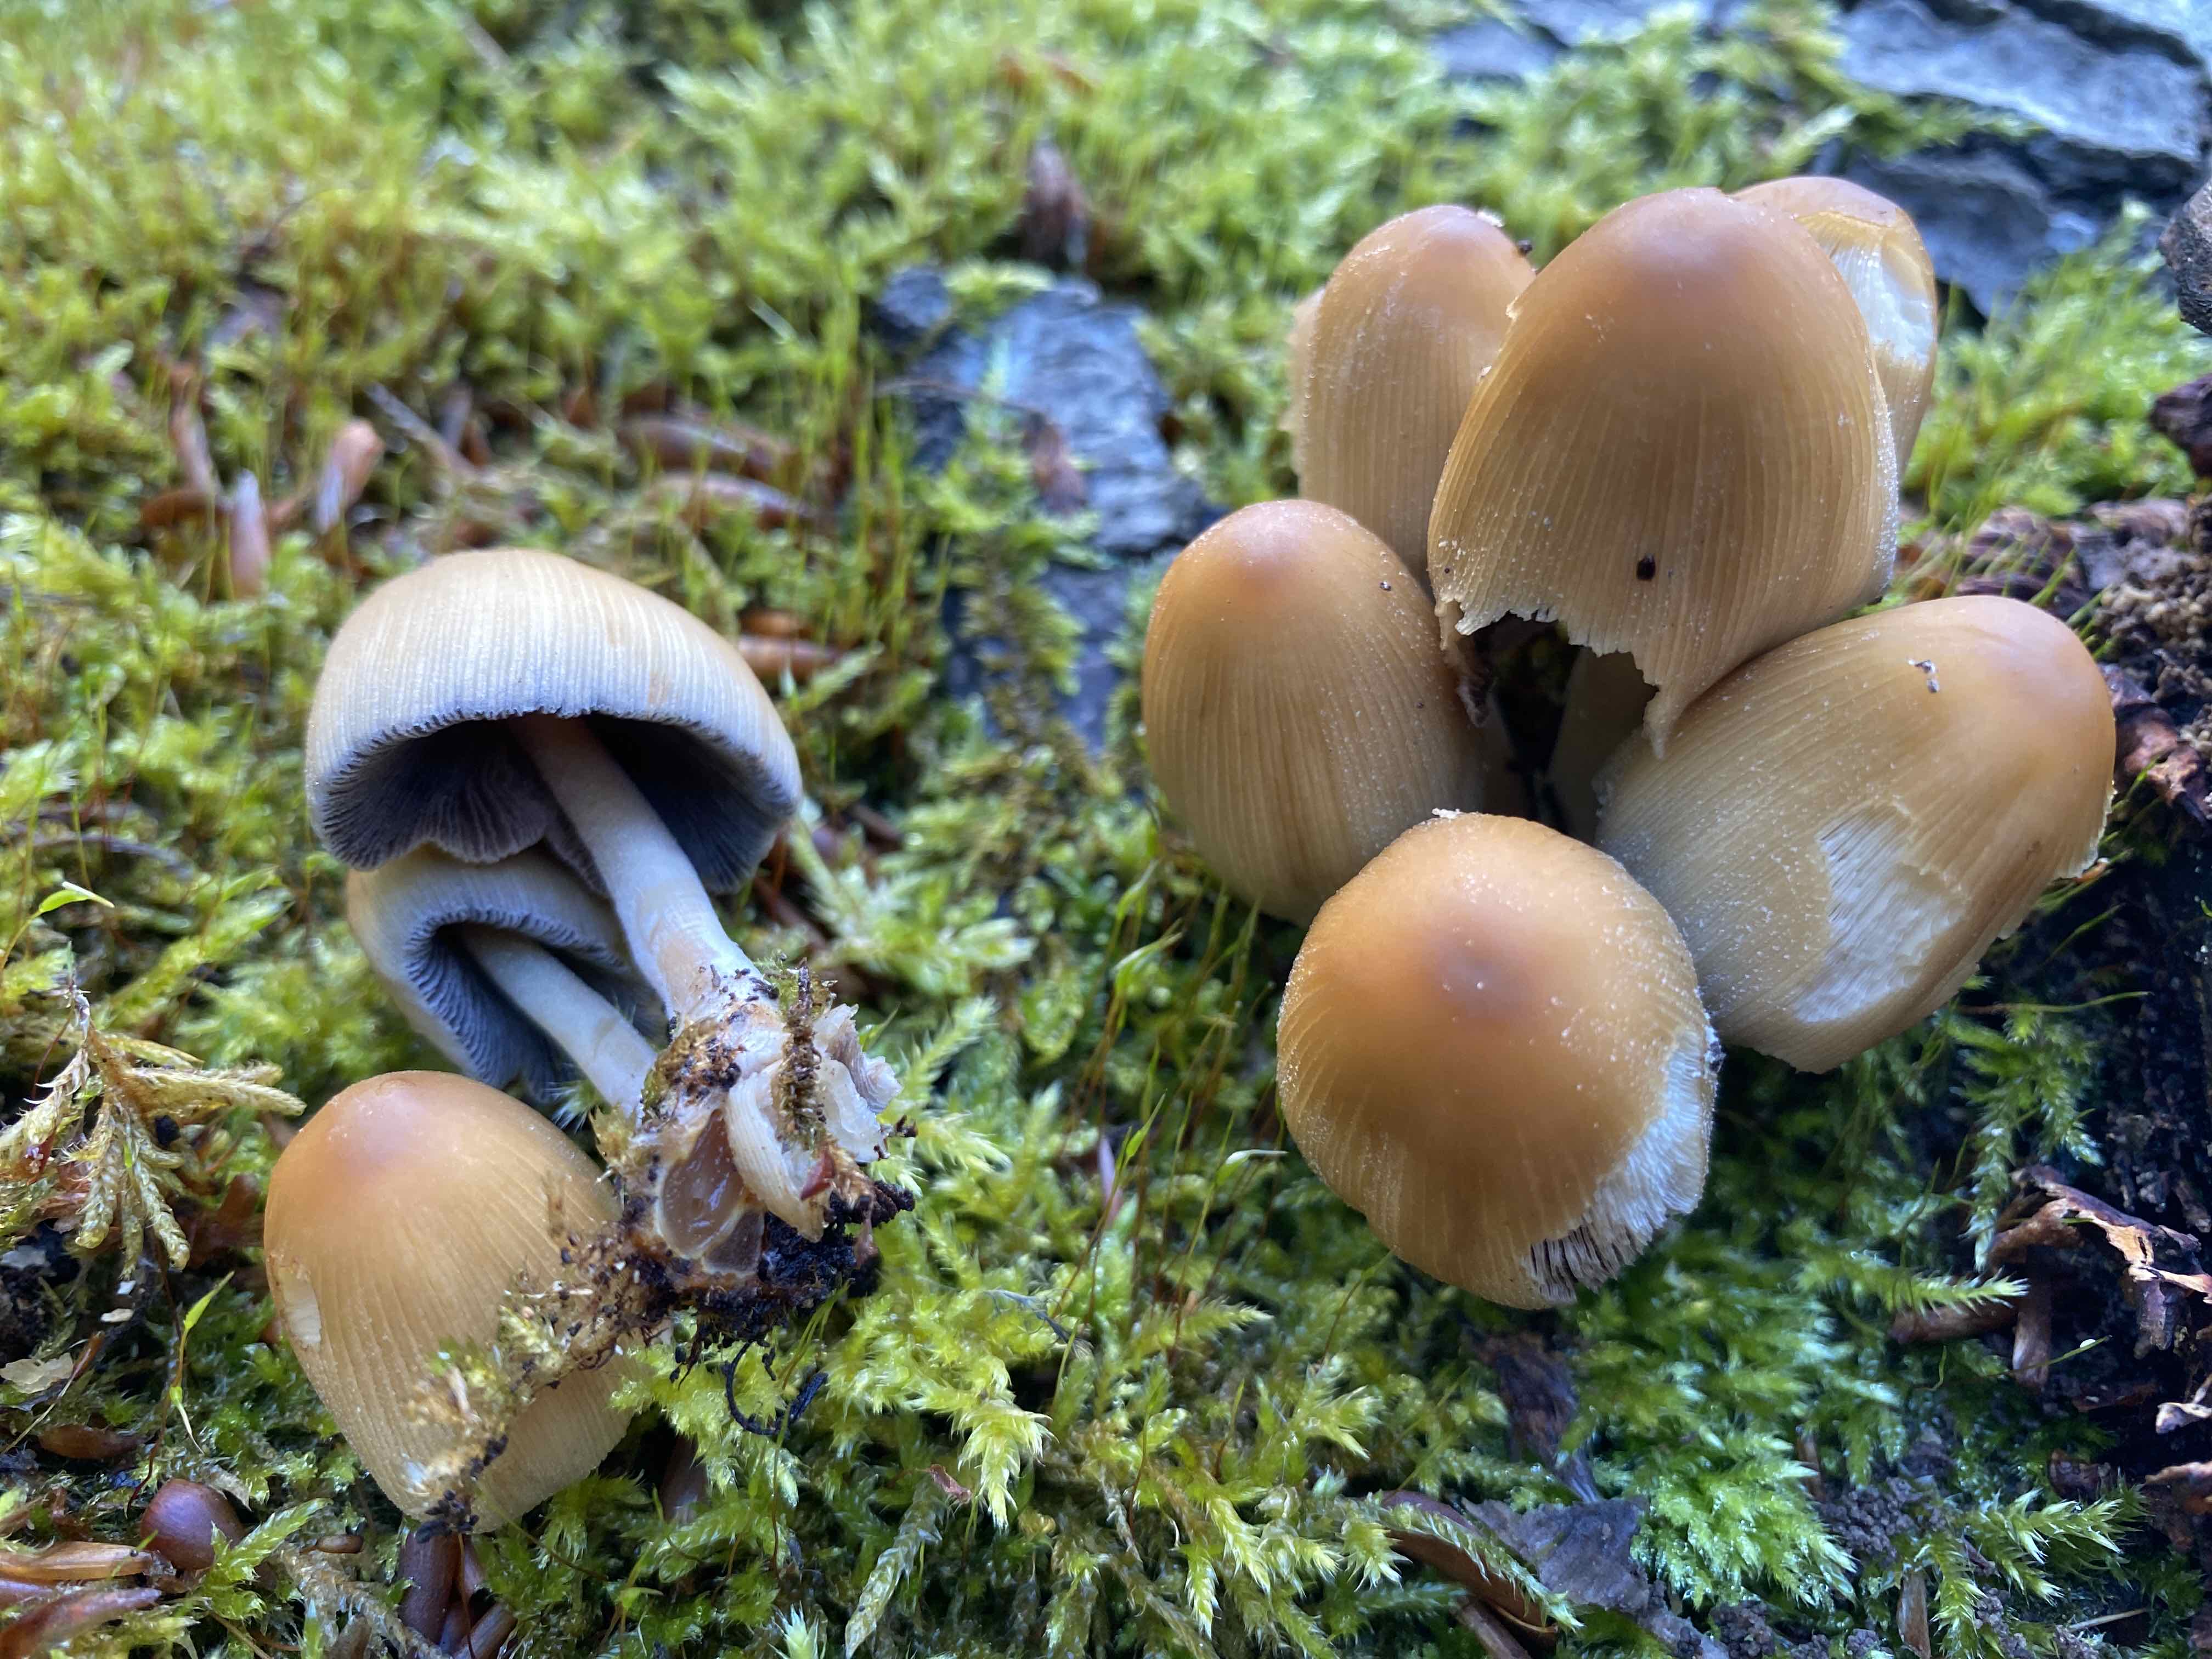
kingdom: Fungi
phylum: Basidiomycota
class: Agaricomycetes
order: Agaricales
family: Psathyrellaceae
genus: Coprinellus
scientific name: Coprinellus micaceus
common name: glimmer-blækhat
